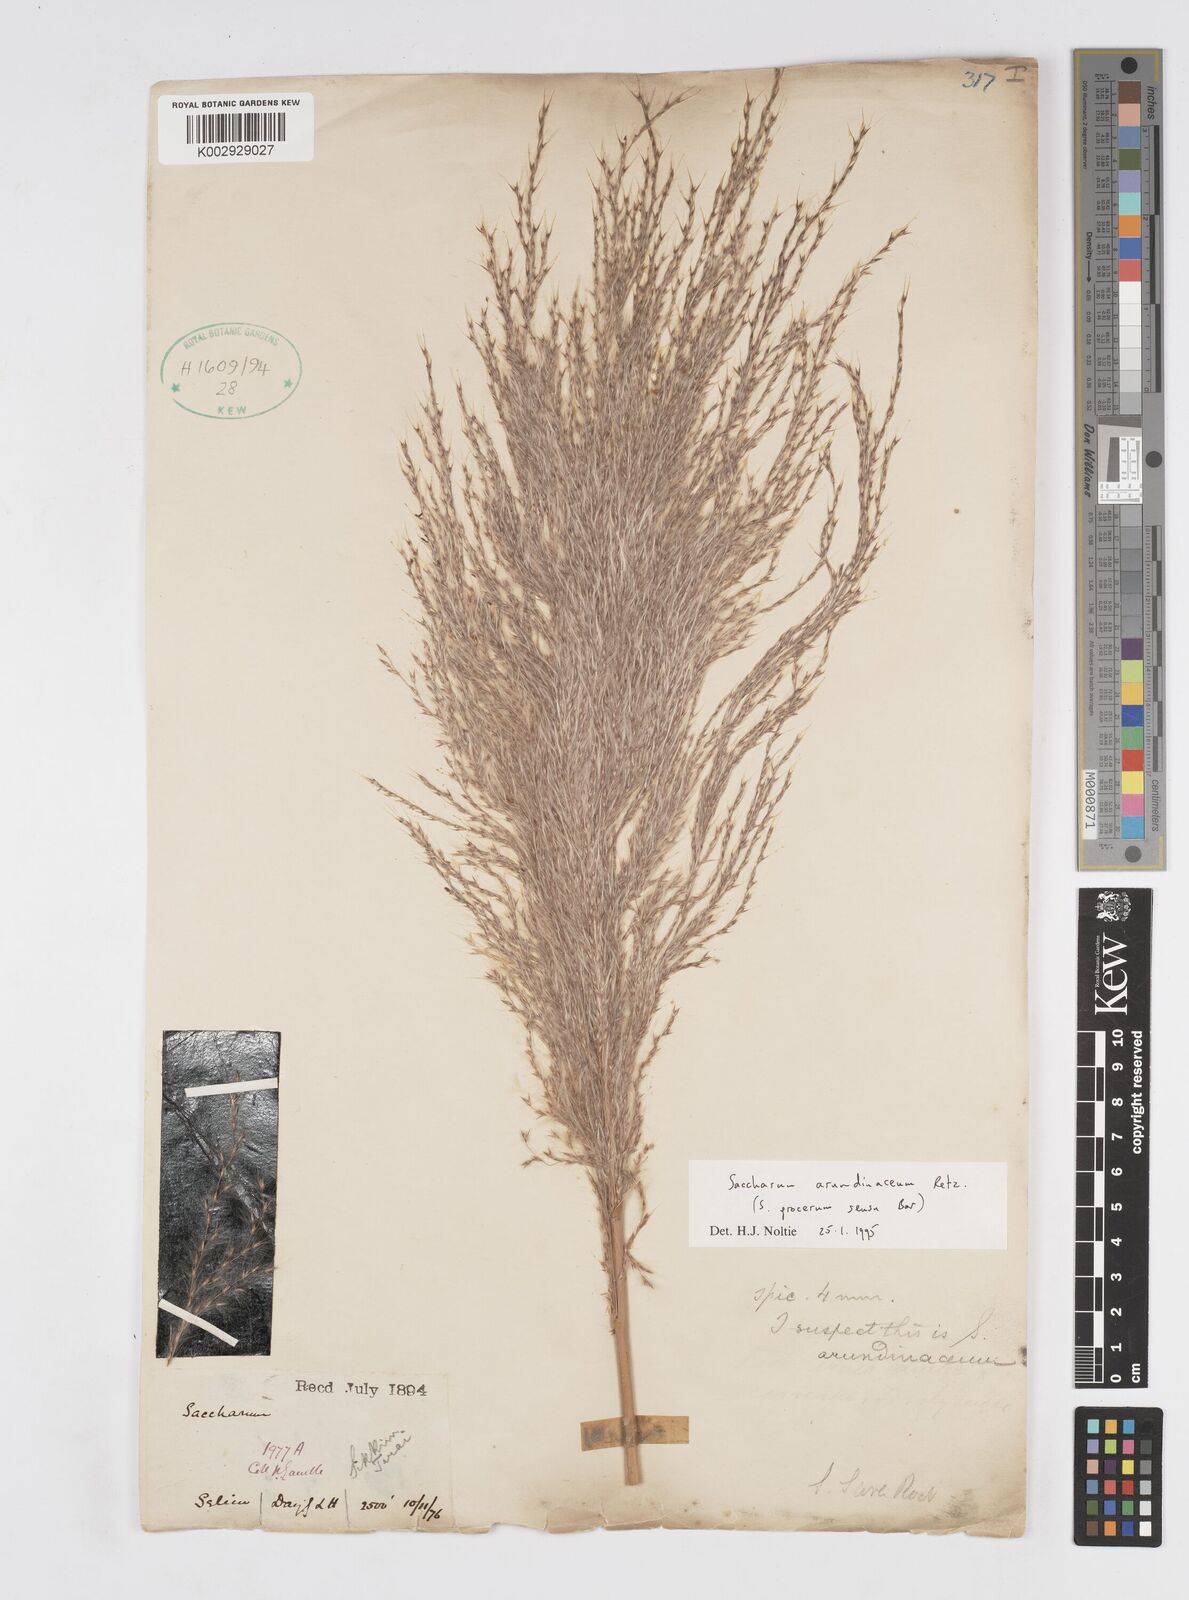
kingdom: Plantae
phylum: Tracheophyta
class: Liliopsida
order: Poales
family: Poaceae
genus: Tripidium
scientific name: Tripidium arundinaceum
